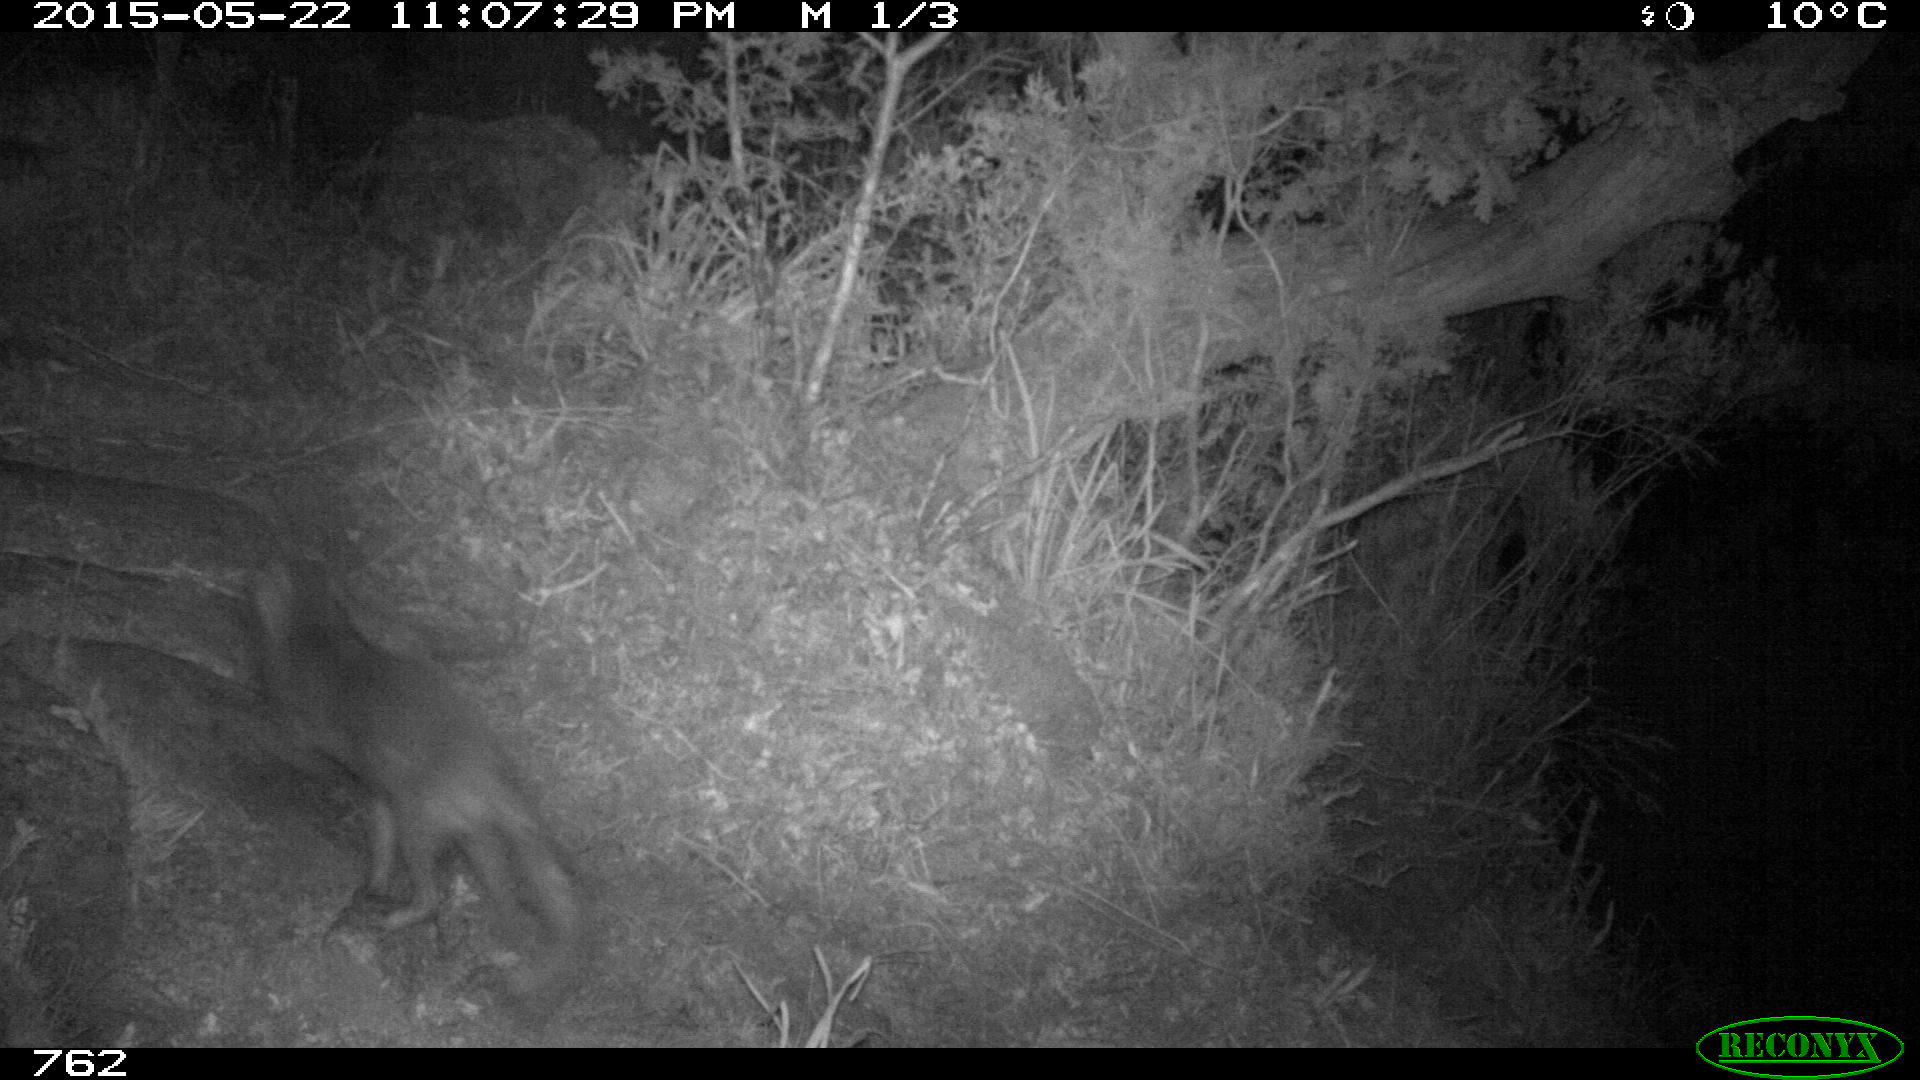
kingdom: Animalia
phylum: Chordata
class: Mammalia
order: Carnivora
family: Canidae
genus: Vulpes
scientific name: Vulpes vulpes
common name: Red fox
